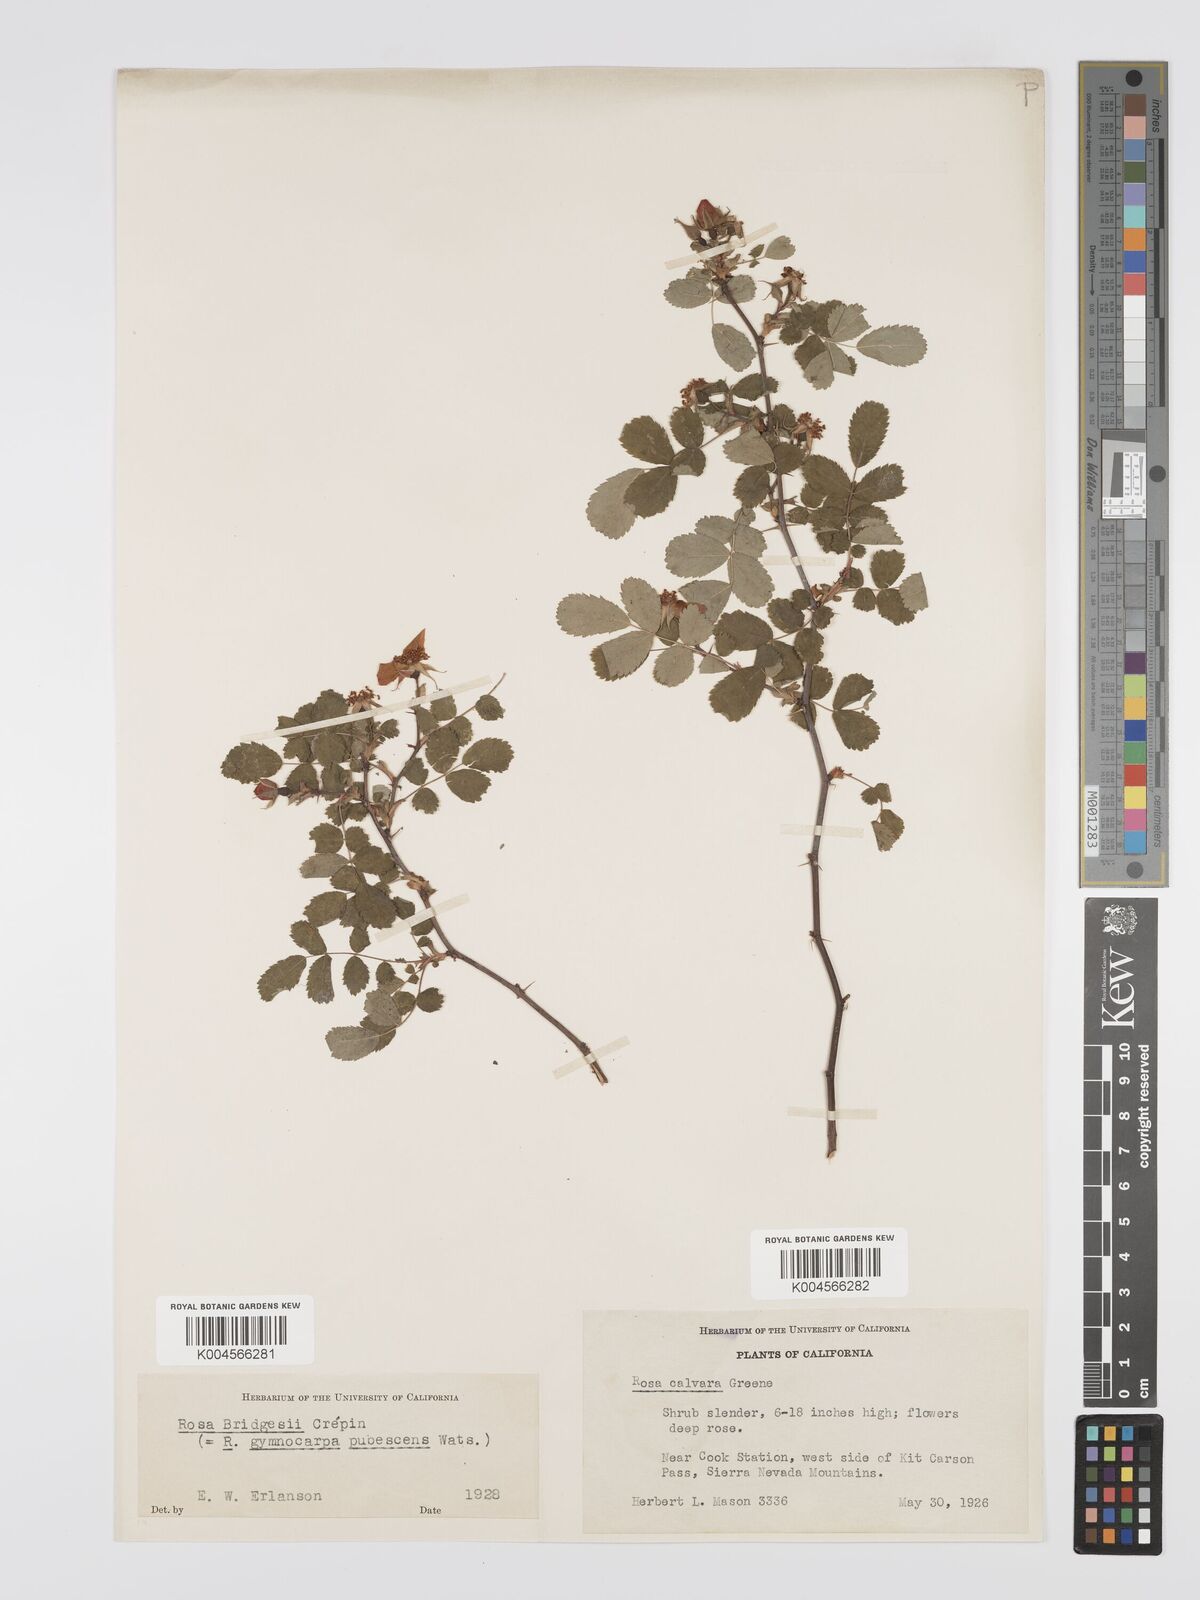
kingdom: Plantae
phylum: Tracheophyta
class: Magnoliopsida
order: Rosales
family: Rosaceae
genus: Rosa
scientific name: Rosa bridgesii
